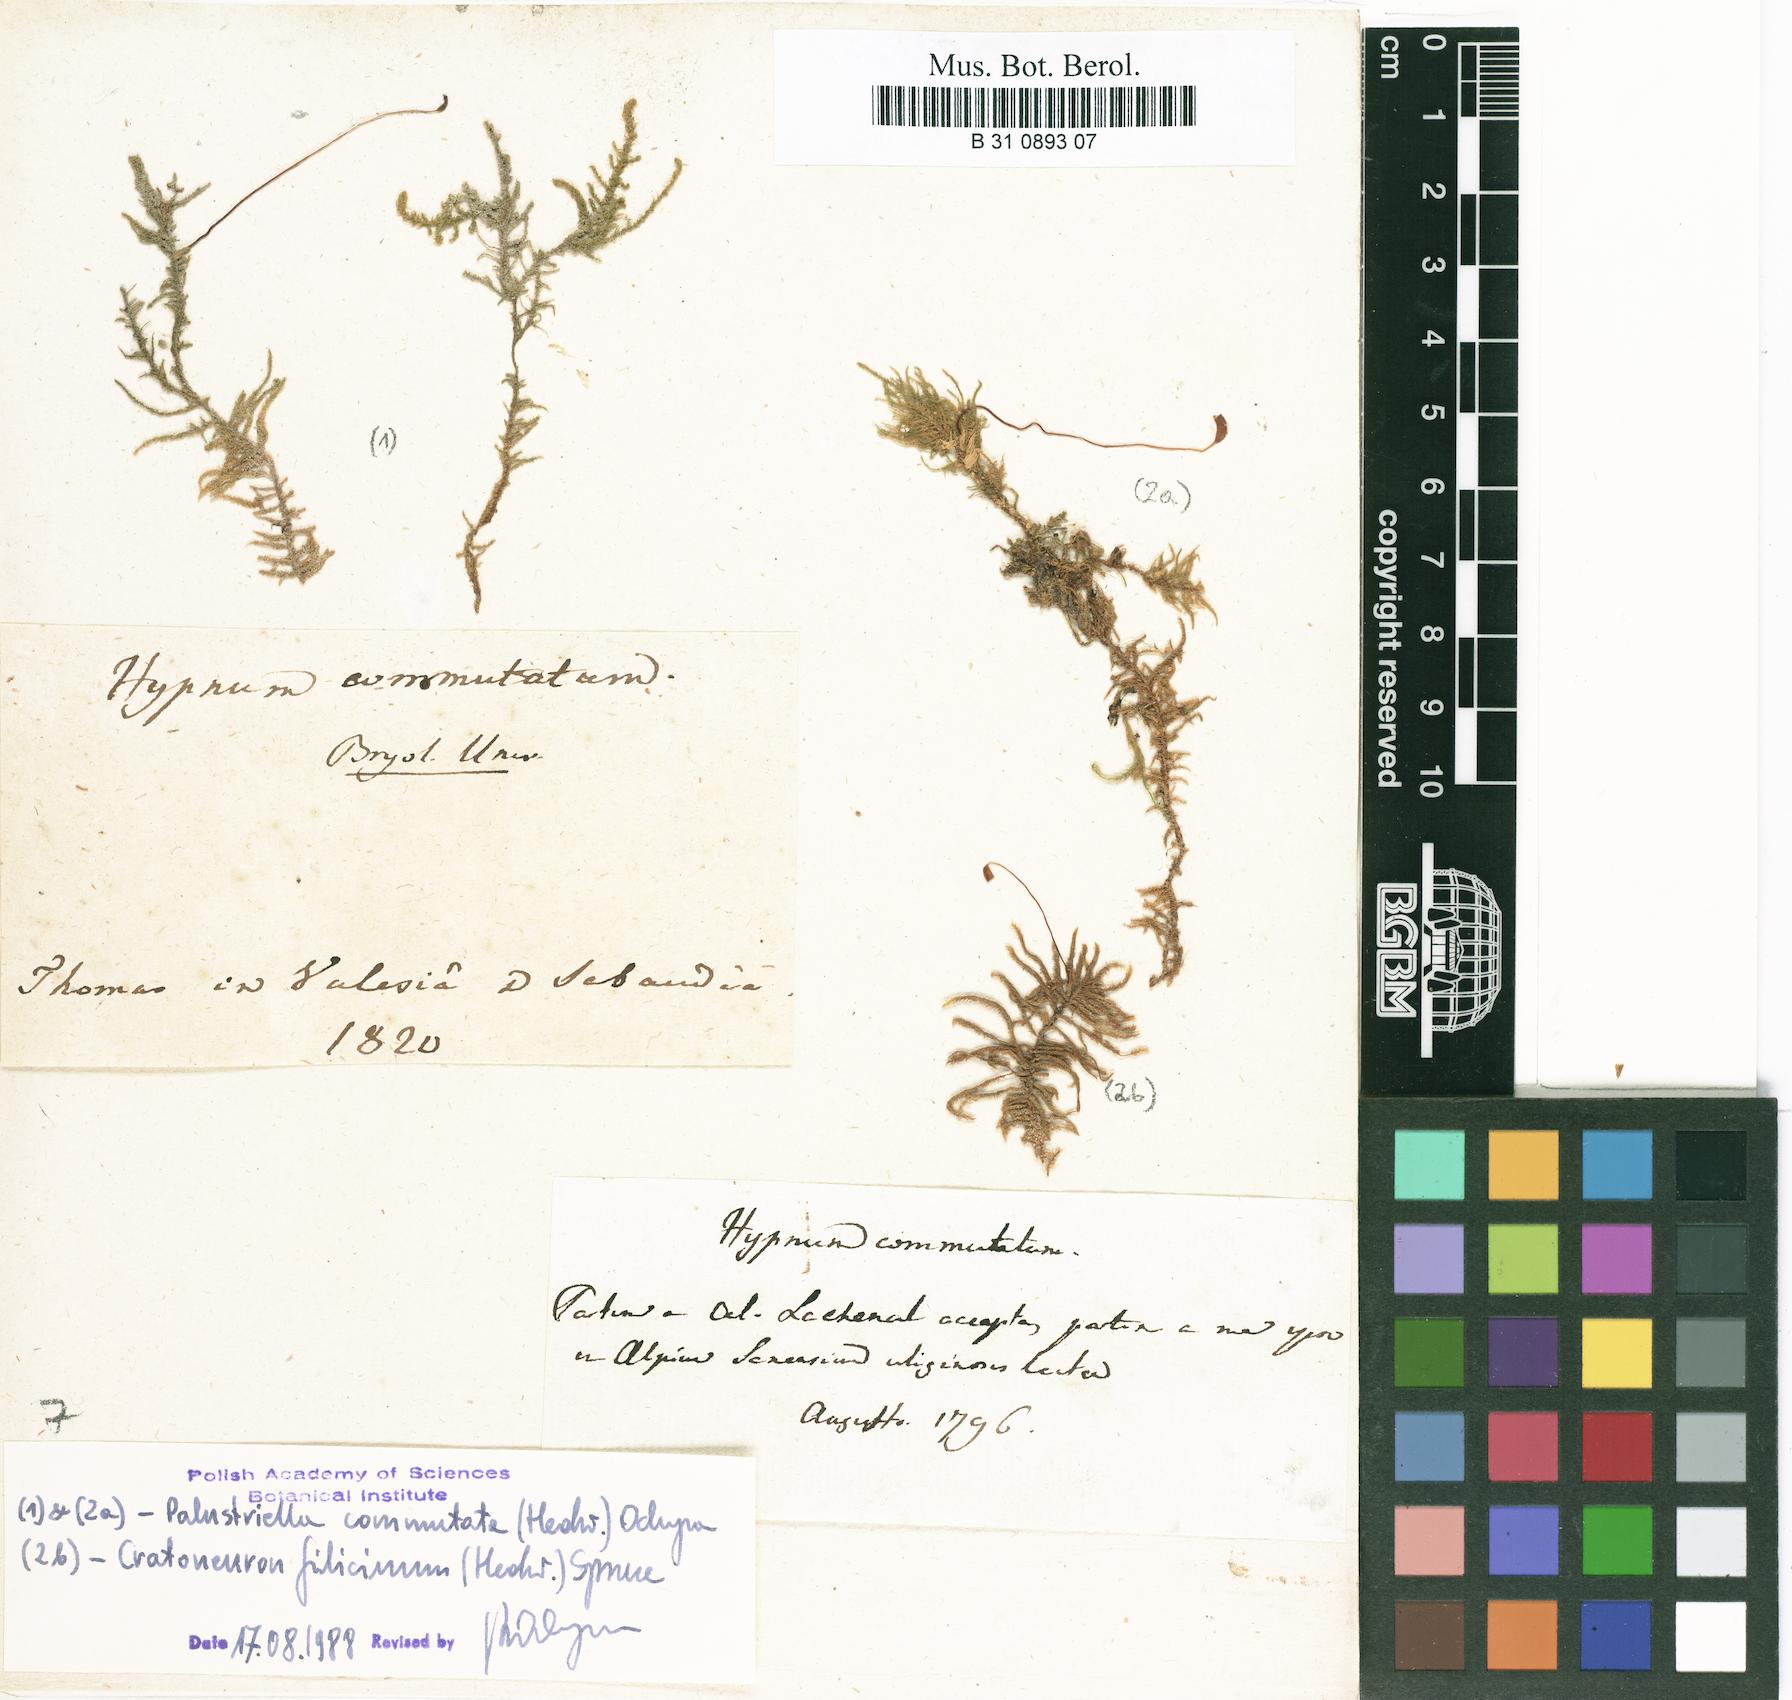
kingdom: Plantae
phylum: Bryophyta
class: Bryopsida
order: Hypnales
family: Amblystegiaceae
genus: Palustriella
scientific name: Palustriella commutata
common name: Curled hook-moss
